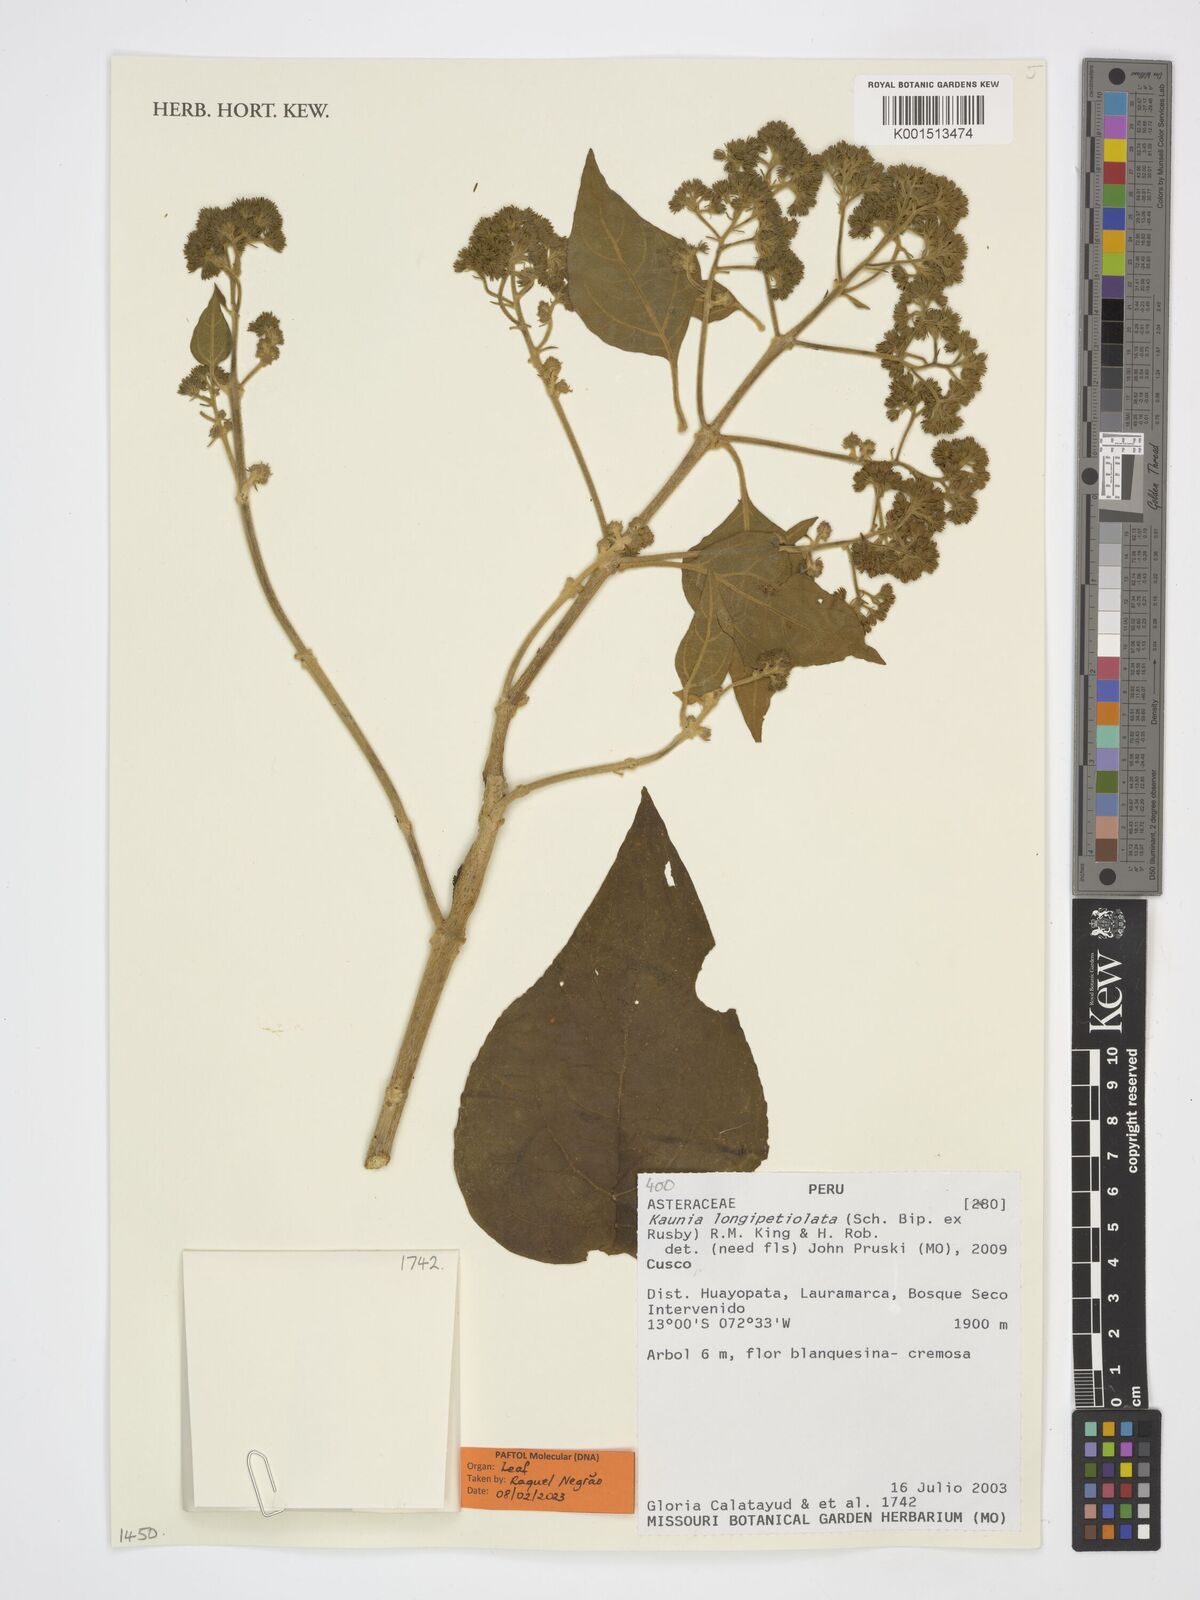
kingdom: Plantae
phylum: Tracheophyta
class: Magnoliopsida
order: Asterales
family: Asteraceae
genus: Kaunia
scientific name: Kaunia longipetiolata
